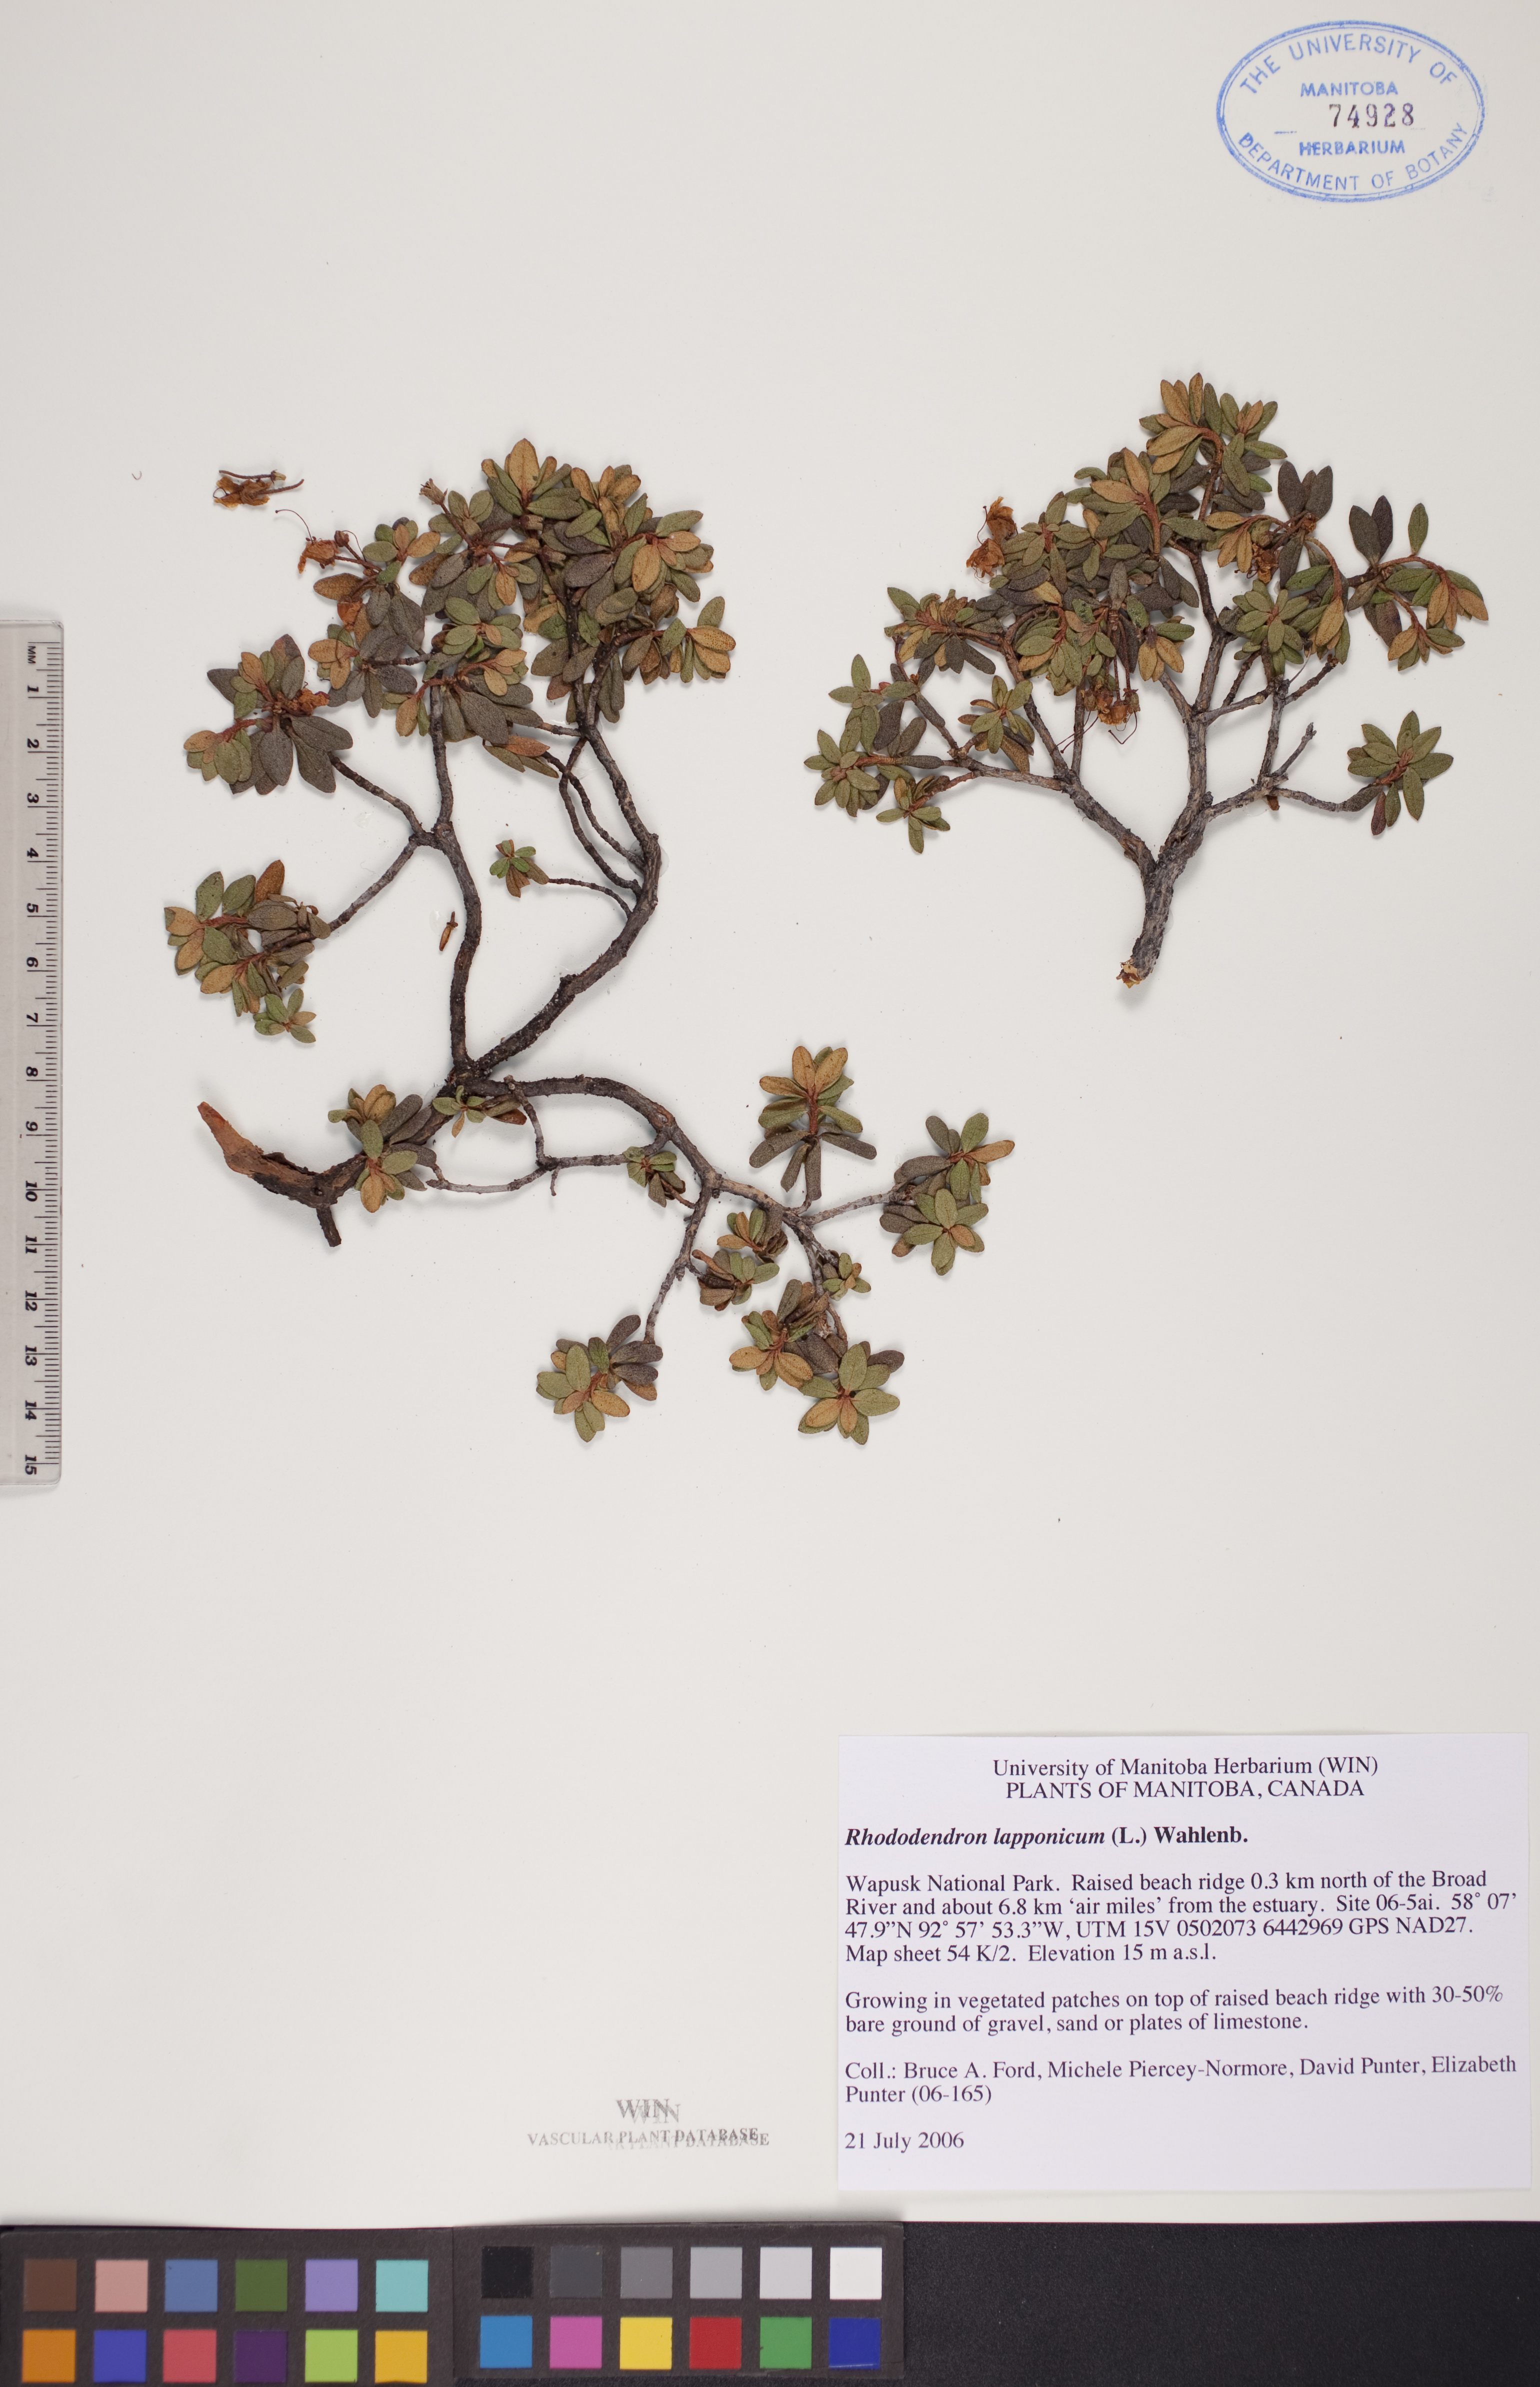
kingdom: Plantae
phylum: Tracheophyta
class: Magnoliopsida
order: Ericales
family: Ericaceae
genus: Rhododendron
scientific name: Rhododendron lapponicum
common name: Lapland rhododendron
